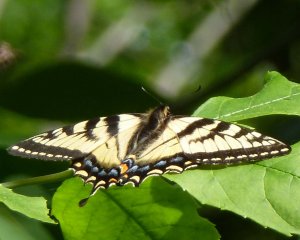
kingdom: Animalia
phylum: Arthropoda
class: Insecta
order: Lepidoptera
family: Papilionidae
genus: Pterourus
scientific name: Pterourus canadensis
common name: Canadian Tiger Swallowtail
